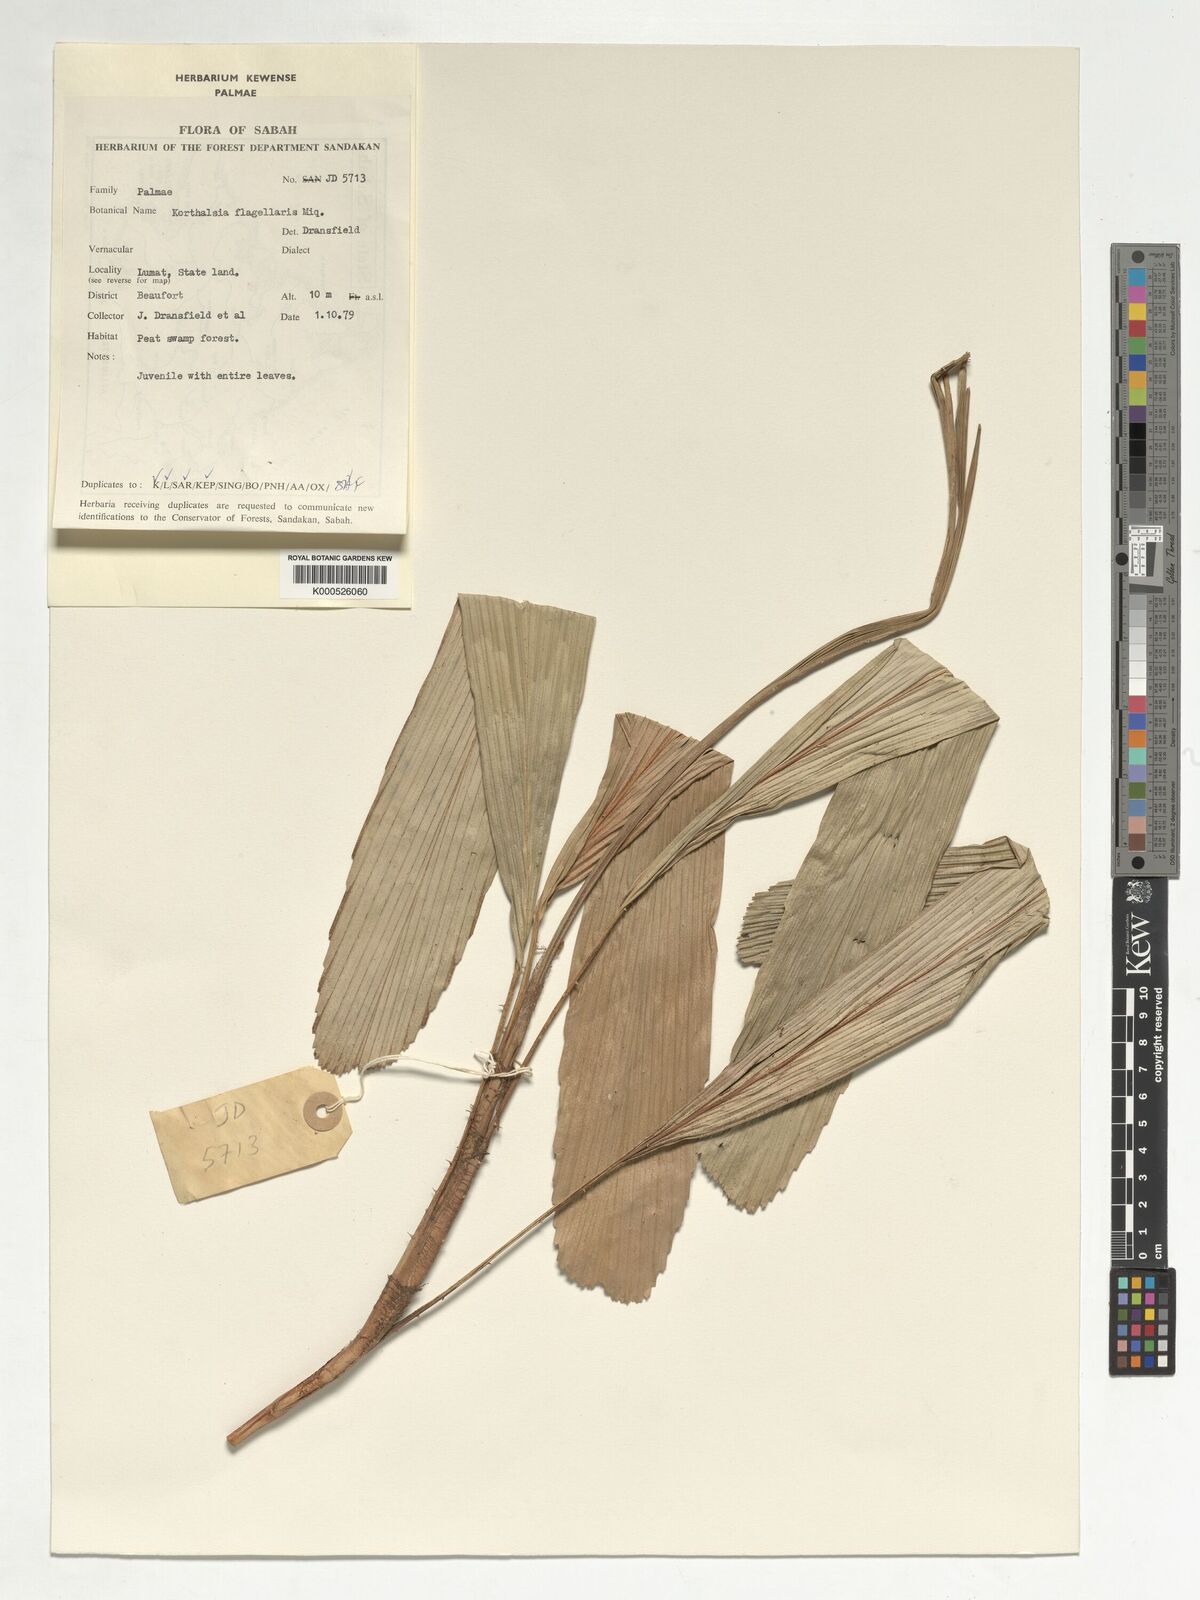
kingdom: Plantae
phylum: Tracheophyta
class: Liliopsida
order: Arecales
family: Arecaceae
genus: Korthalsia
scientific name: Korthalsia flagellaris
